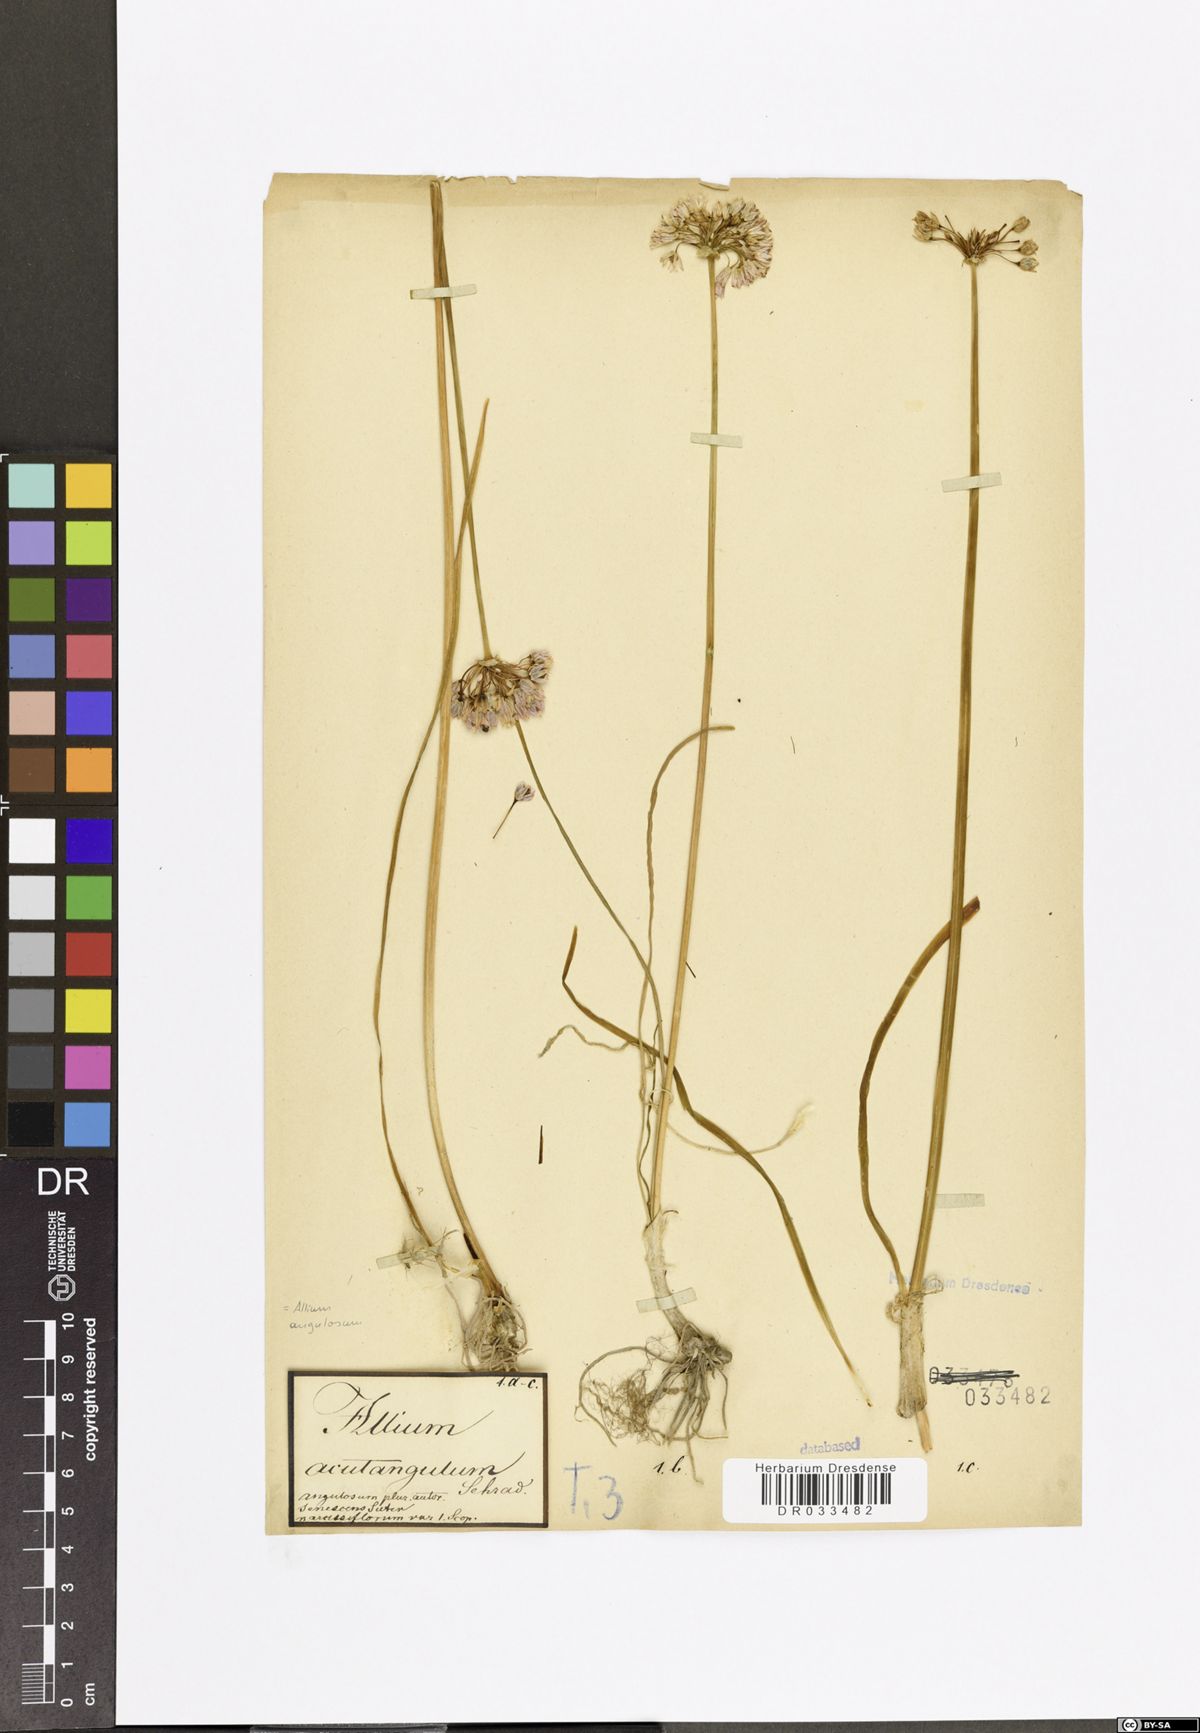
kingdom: Plantae
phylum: Tracheophyta
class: Liliopsida
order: Asparagales
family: Amaryllidaceae
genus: Allium
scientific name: Allium angulosum
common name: Mouse garlic
